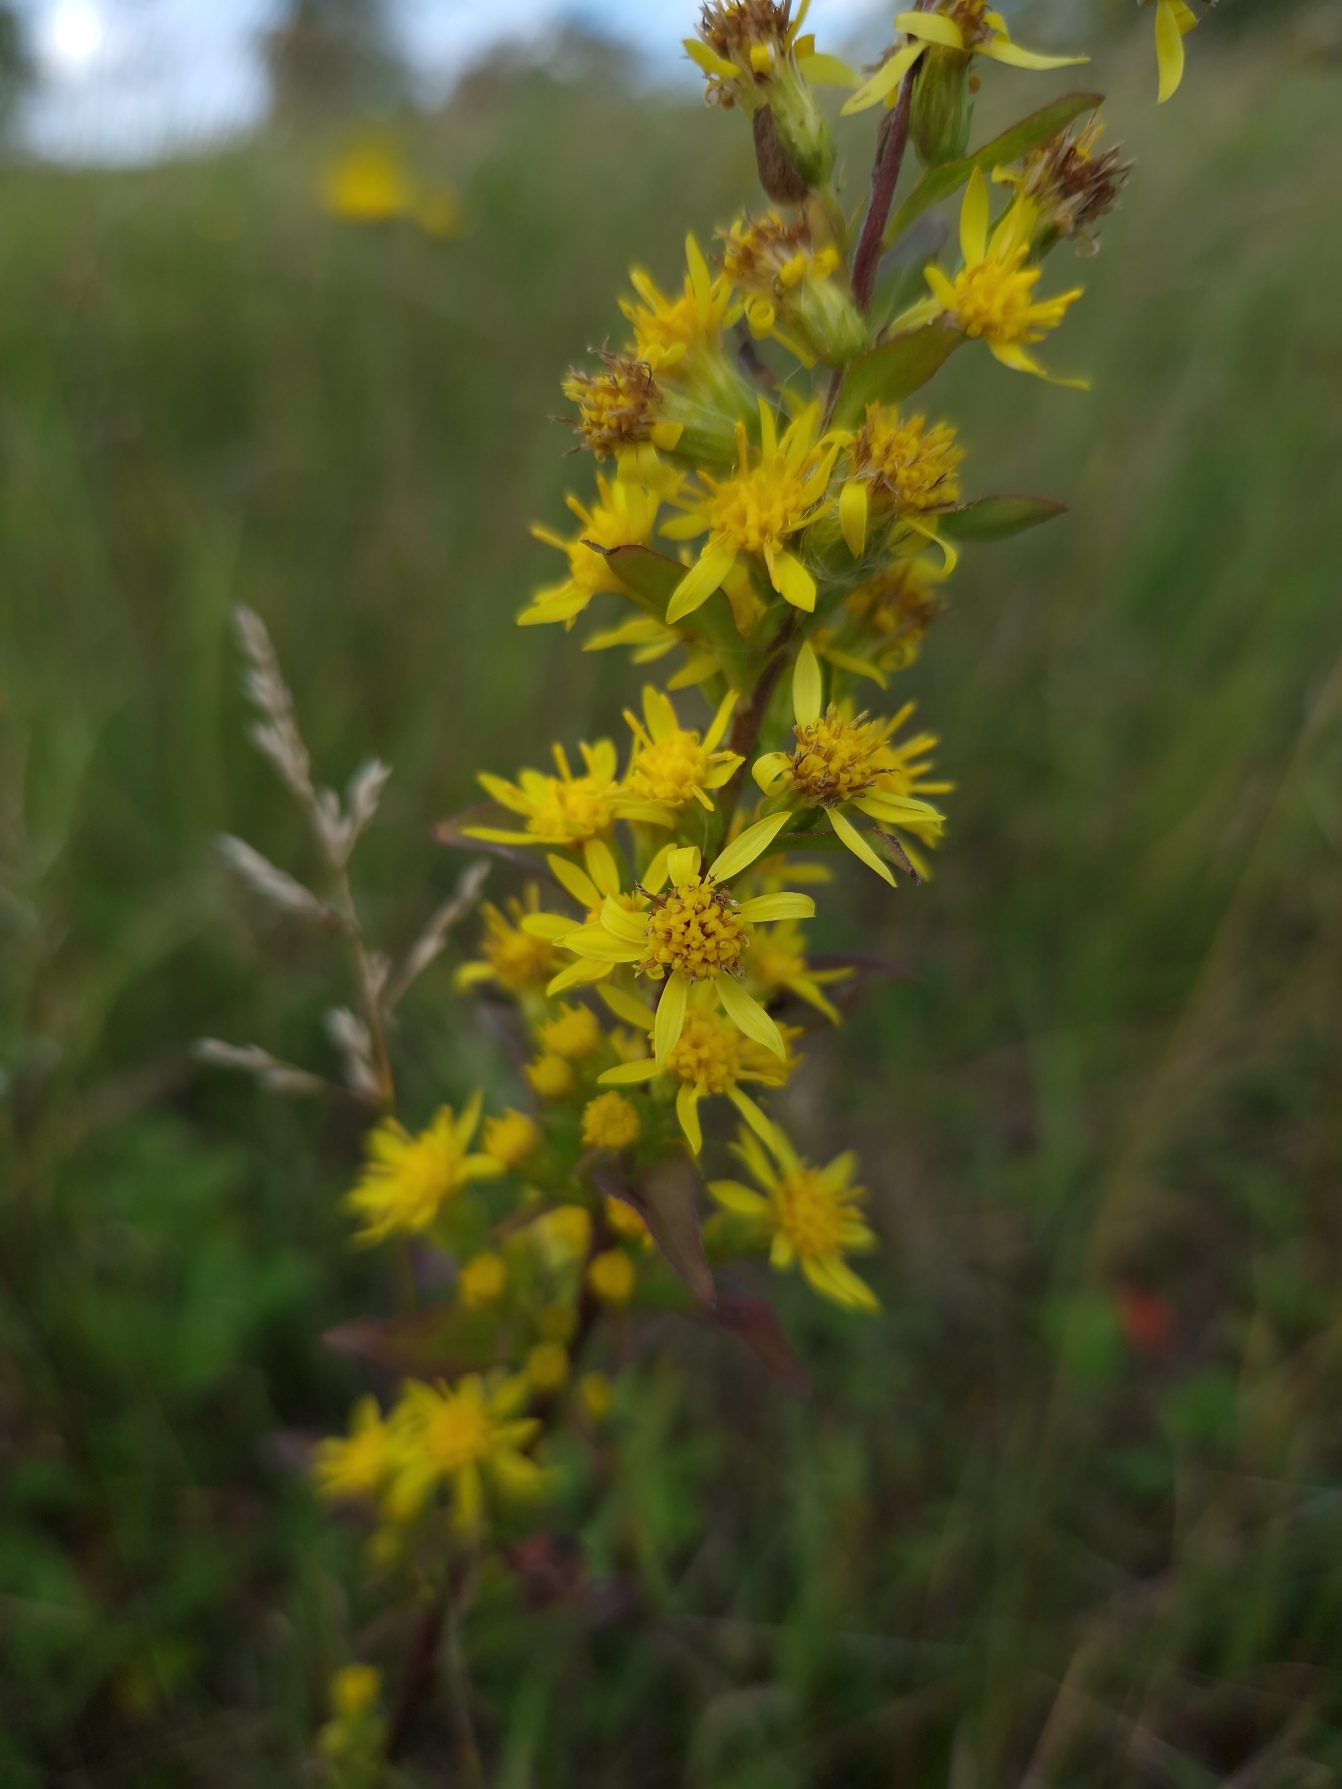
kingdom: Plantae
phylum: Tracheophyta
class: Magnoliopsida
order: Asterales
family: Asteraceae
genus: Solidago
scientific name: Solidago virgaurea
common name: Almindelig gyldenris
